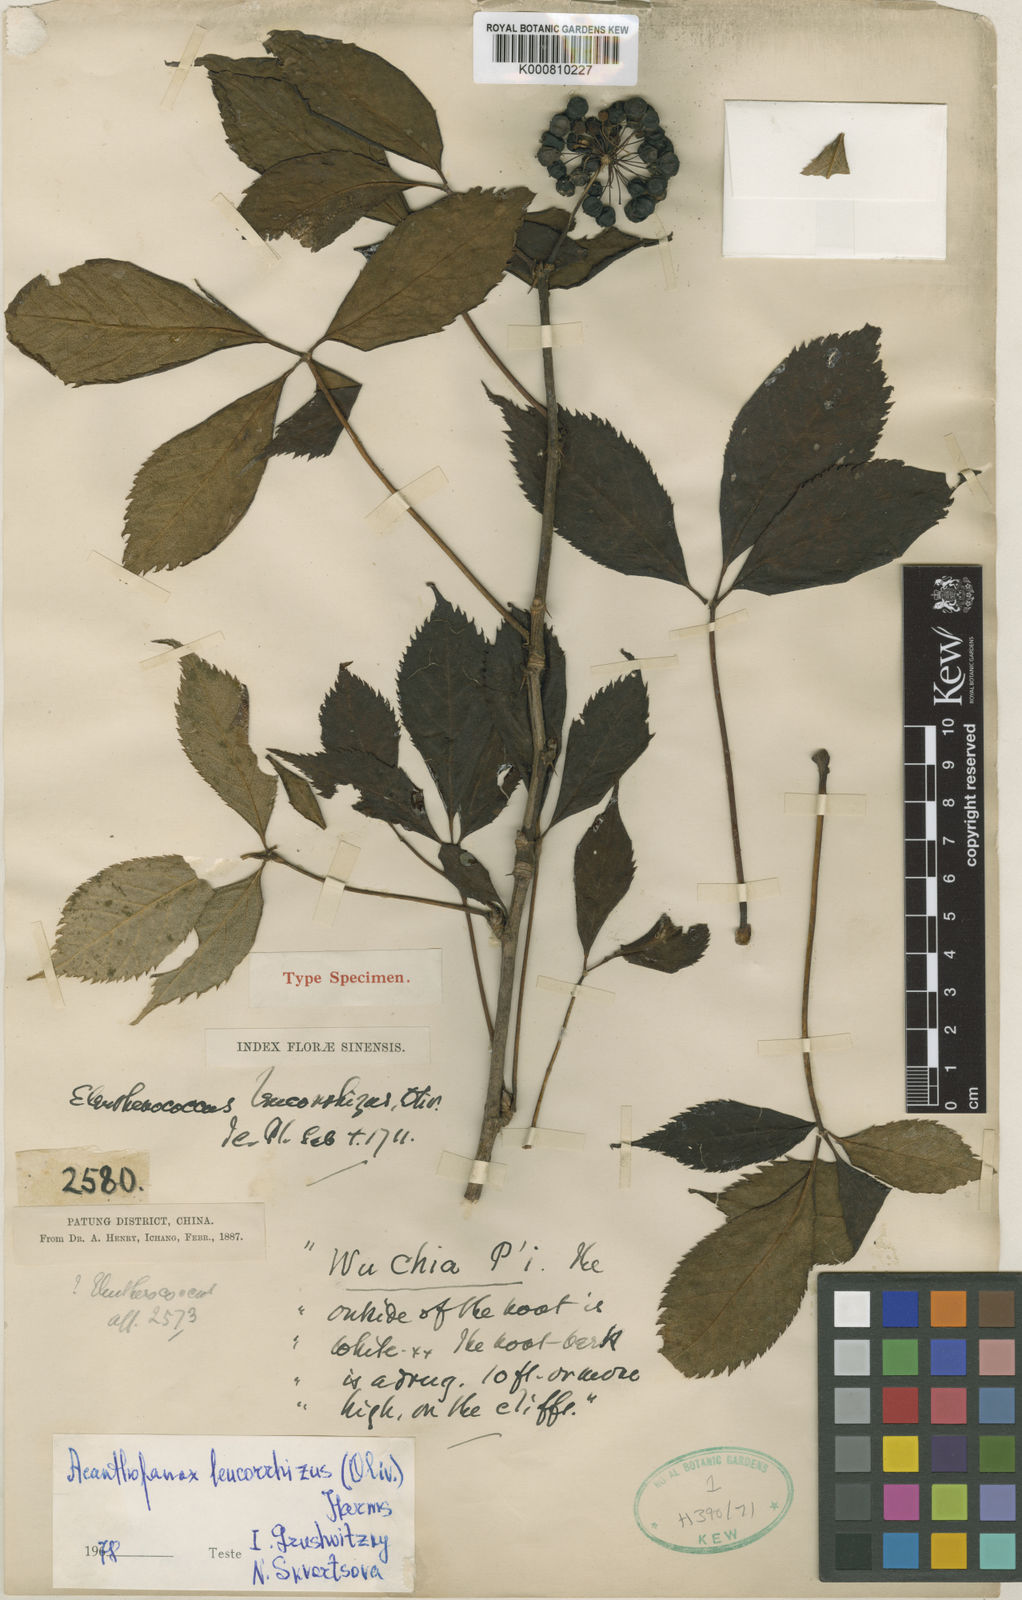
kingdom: Plantae
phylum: Tracheophyta
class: Magnoliopsida
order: Apiales
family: Araliaceae
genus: Eleutherococcus
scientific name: Eleutherococcus leucorrhizus
